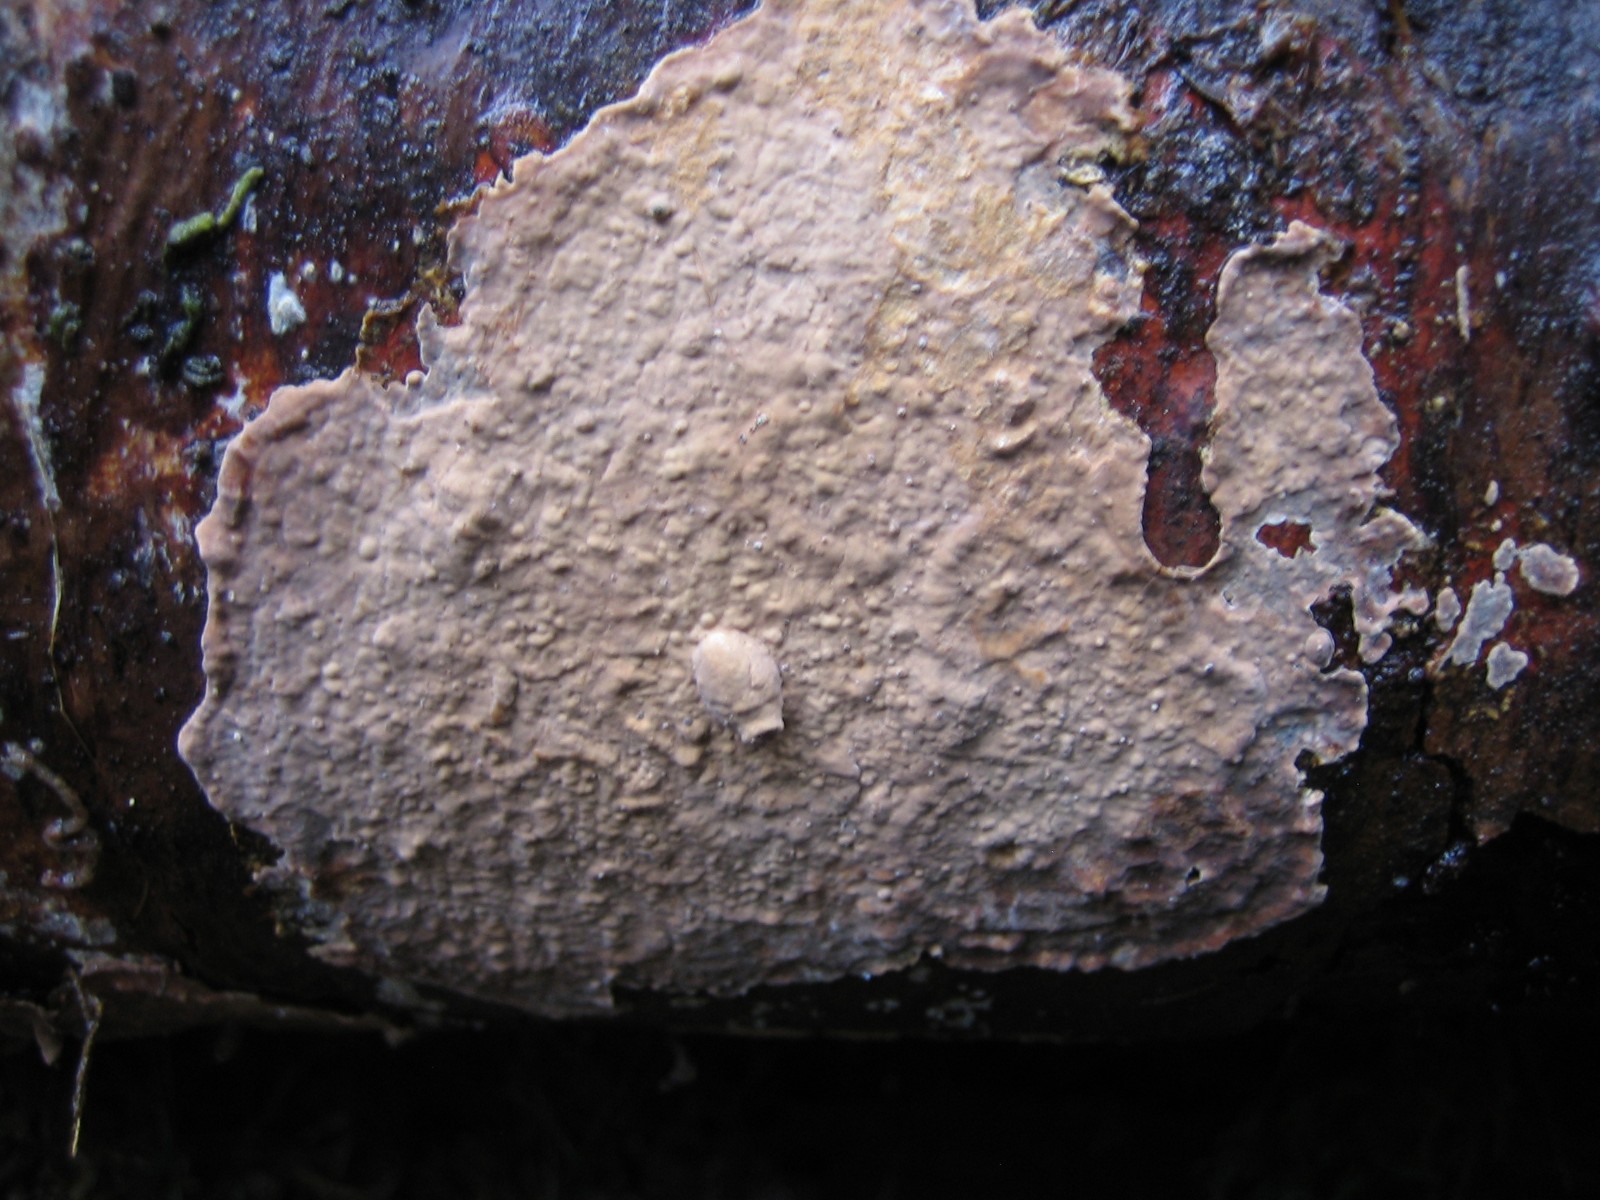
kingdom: Fungi
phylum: Basidiomycota
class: Agaricomycetes
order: Russulales
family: Echinodontiaceae
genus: Amylostereum
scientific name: Amylostereum chailletii
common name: gran-lædersvamp
